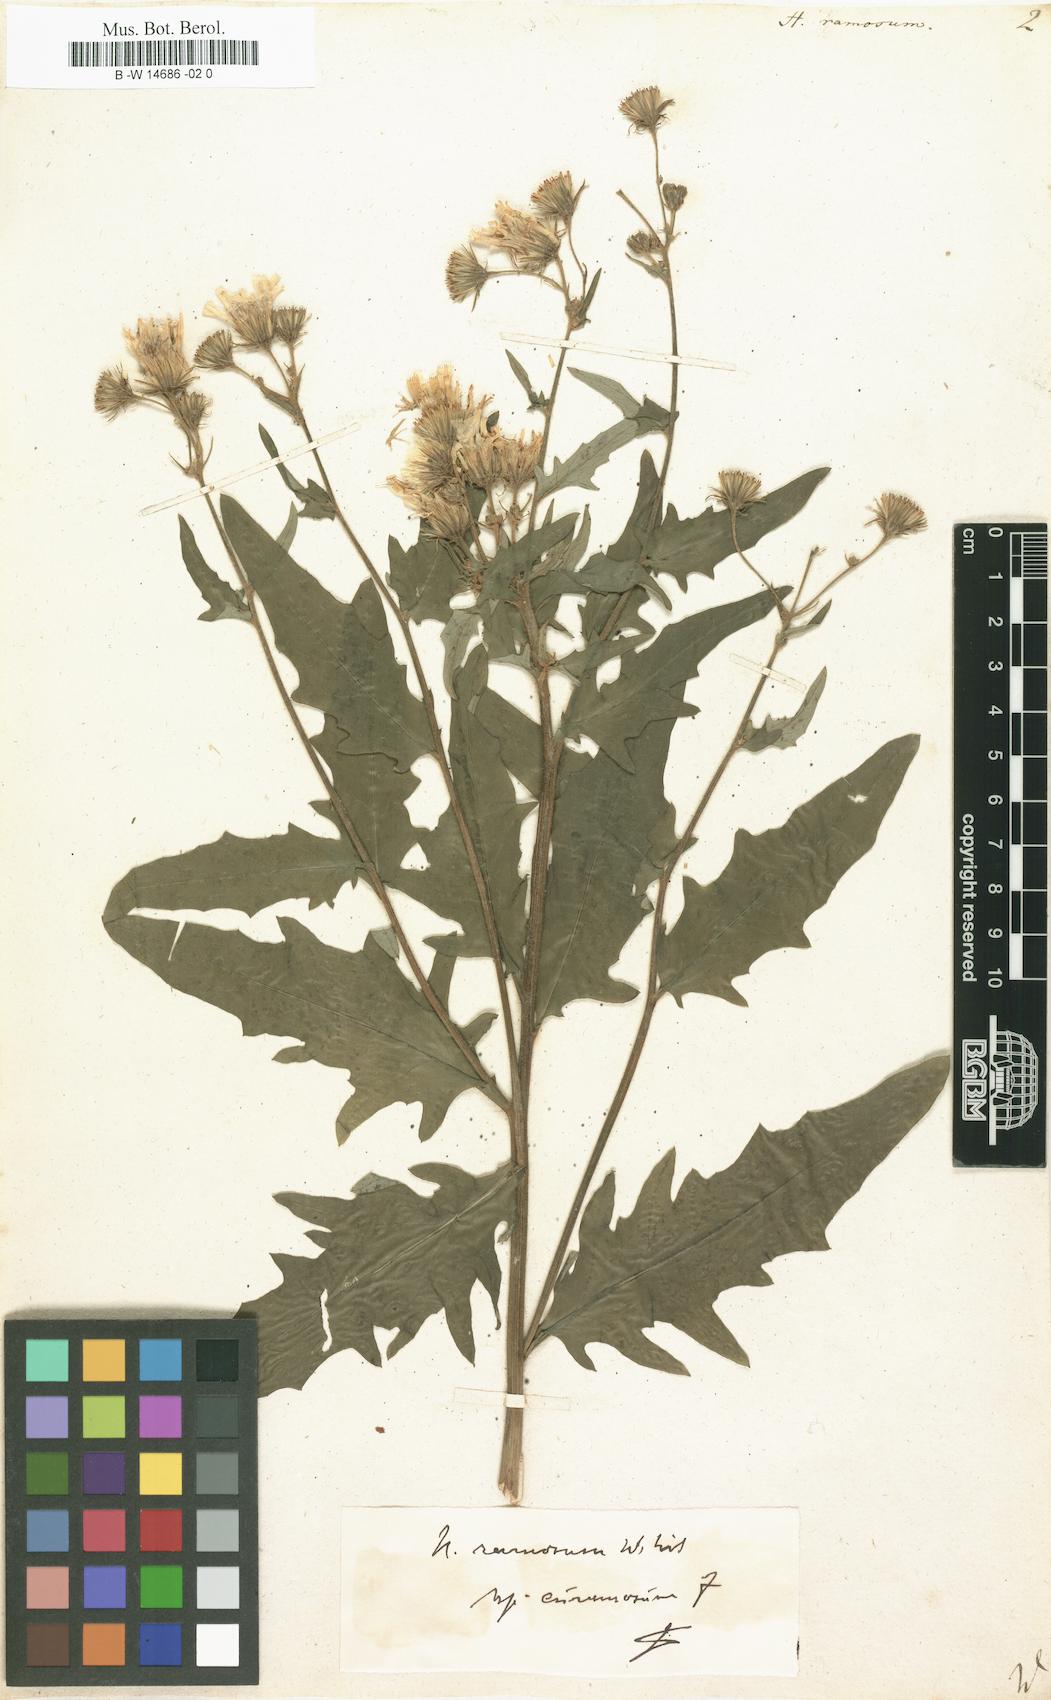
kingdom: Plantae
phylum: Tracheophyta
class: Magnoliopsida
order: Asterales
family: Asteraceae
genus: Hieracium
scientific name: Hieracium ramosum
